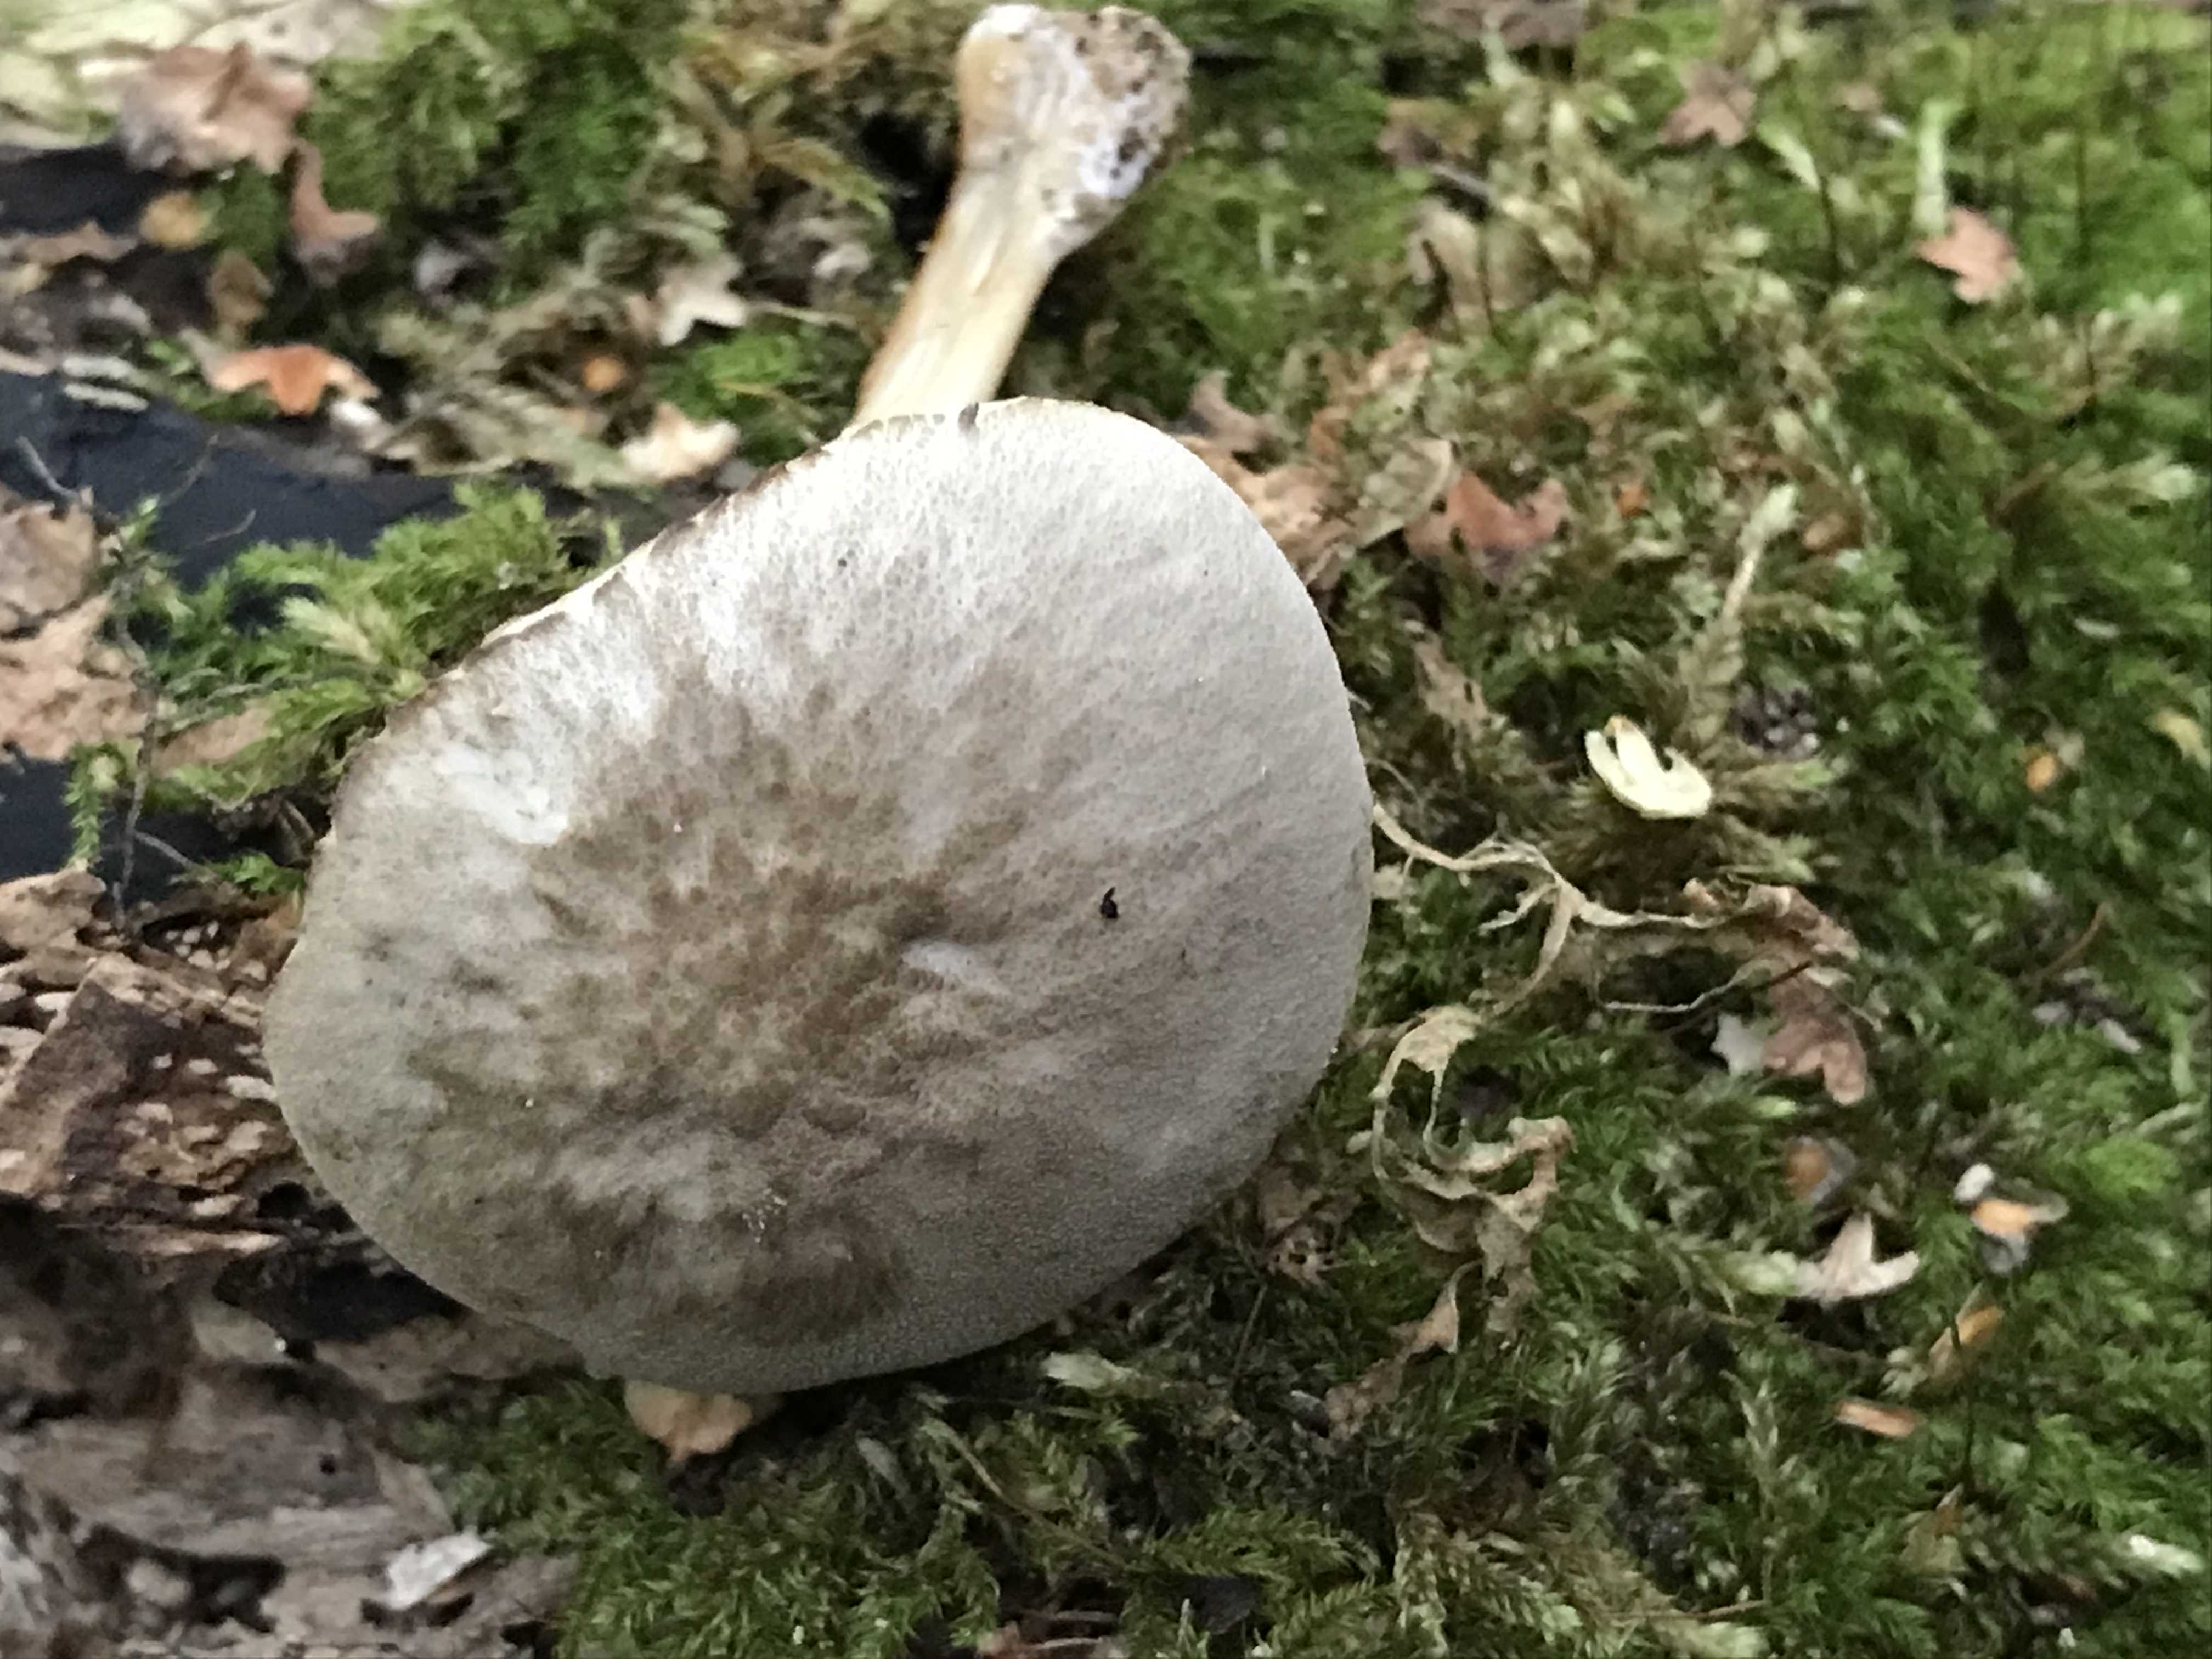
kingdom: Fungi
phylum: Basidiomycota
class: Agaricomycetes
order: Agaricales
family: Pluteaceae
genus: Pluteus
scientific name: Pluteus salicinus
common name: stiv skærmhat
